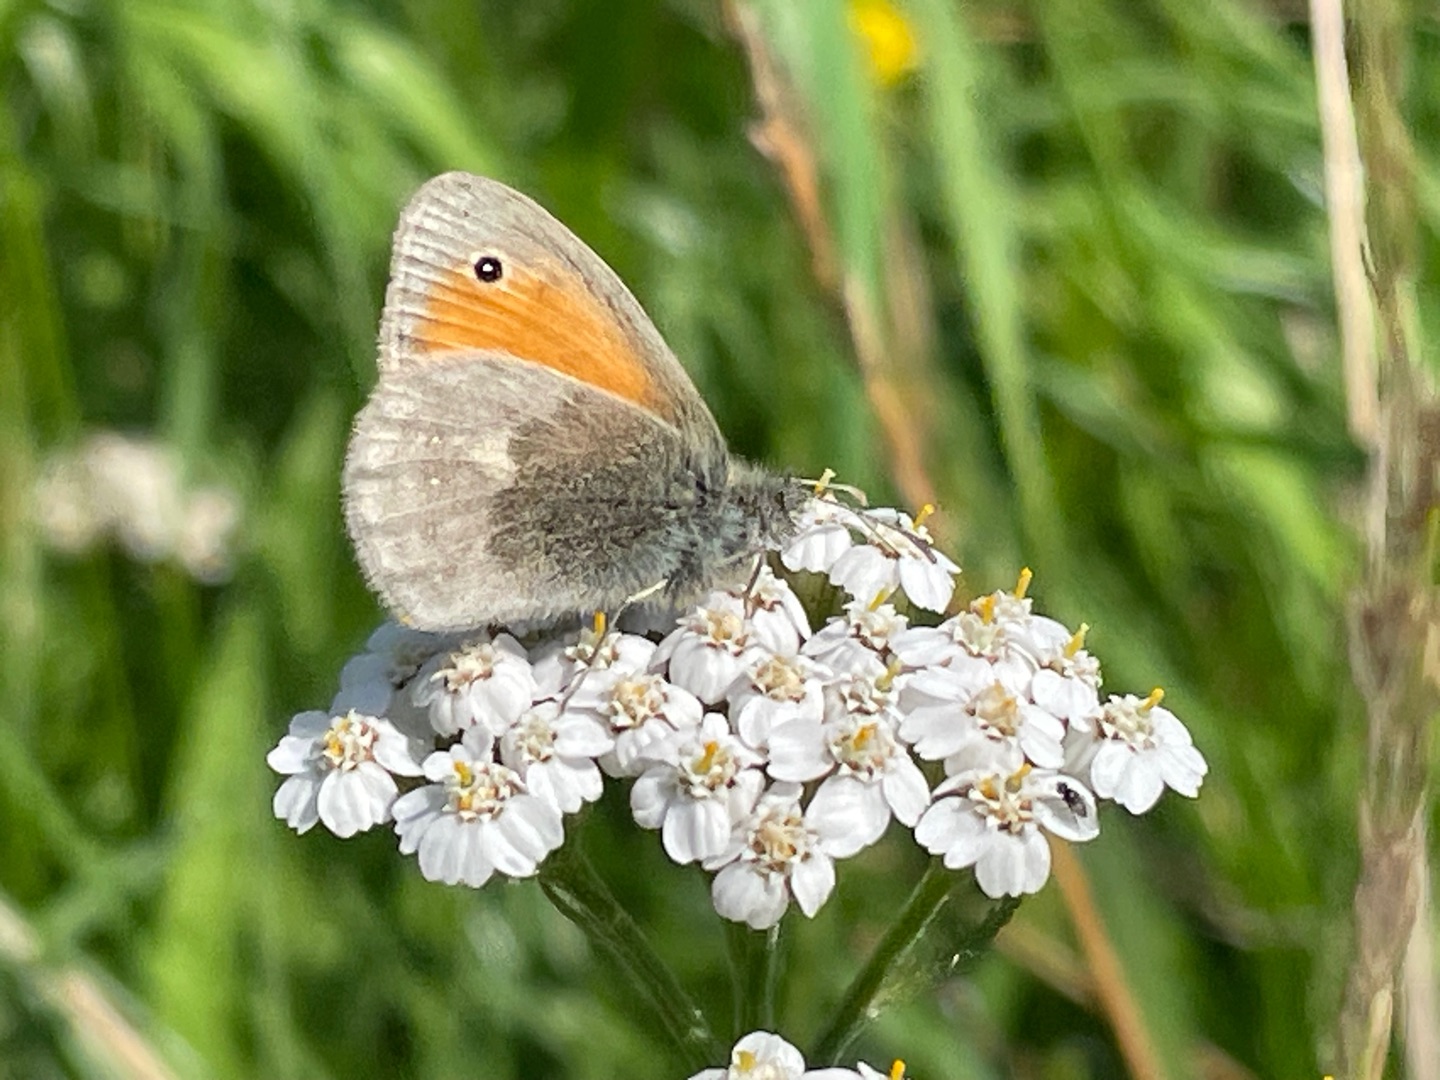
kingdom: Animalia
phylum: Arthropoda
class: Insecta
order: Lepidoptera
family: Nymphalidae
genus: Coenonympha
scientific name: Coenonympha pamphilus
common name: Okkergul randøje
